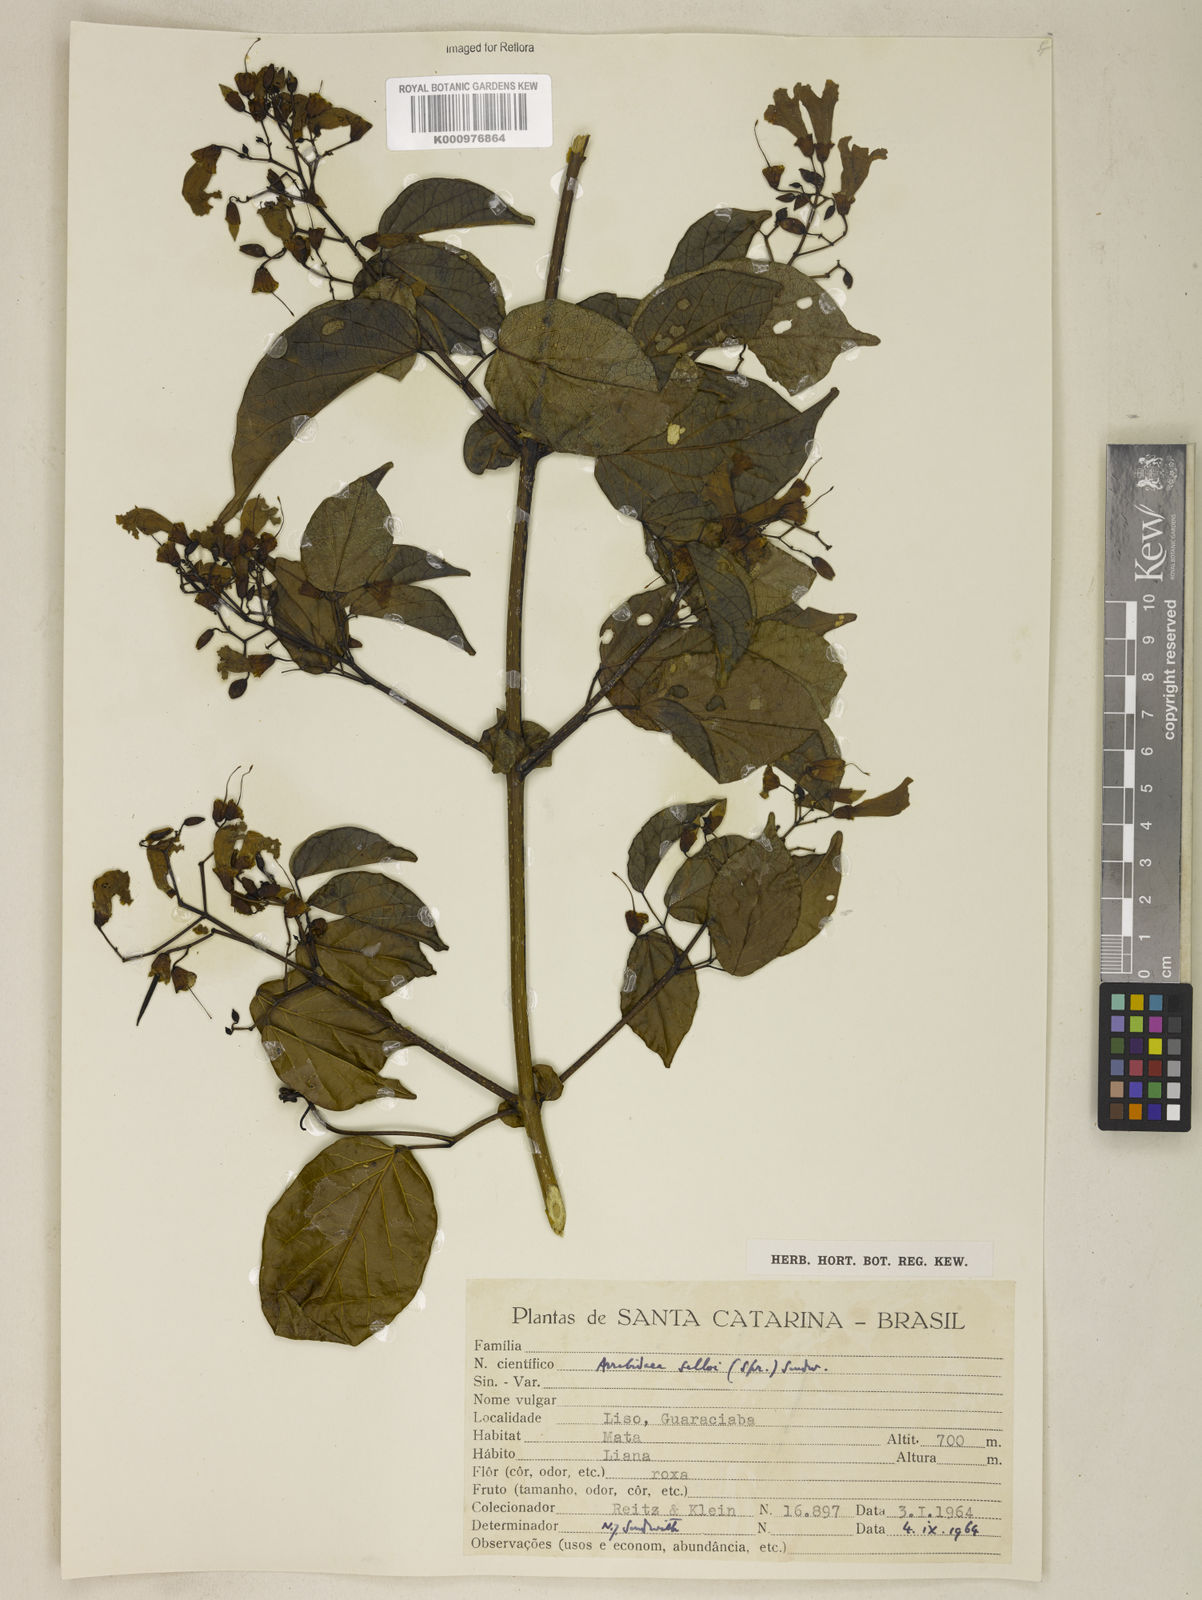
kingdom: Plantae
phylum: Tracheophyta
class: Magnoliopsida
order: Lamiales
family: Bignoniaceae
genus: Tanaecium
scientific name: Tanaecium selloi
